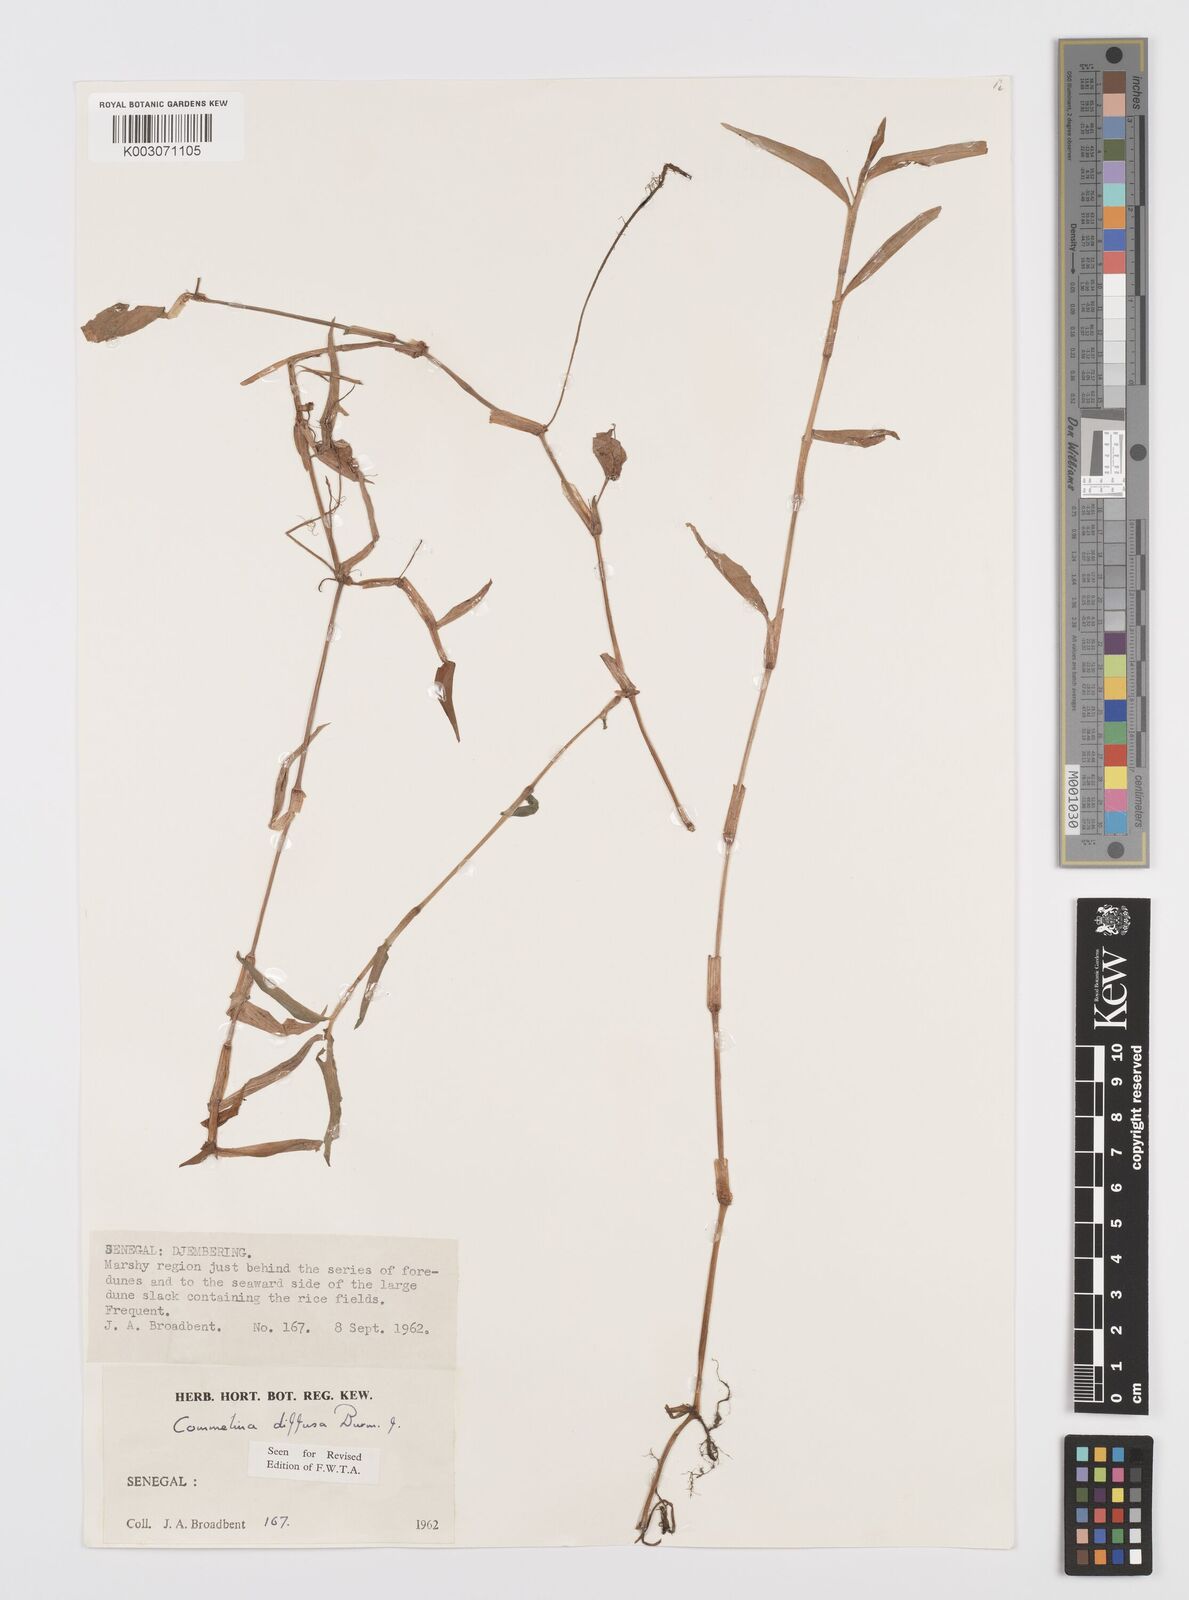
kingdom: Plantae
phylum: Tracheophyta
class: Liliopsida
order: Commelinales
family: Commelinaceae
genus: Commelina
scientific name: Commelina diffusa
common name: Climbing dayflower
